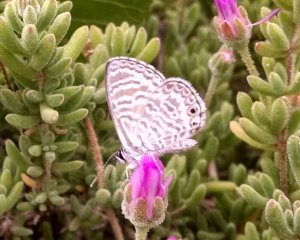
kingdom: Animalia
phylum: Arthropoda
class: Insecta
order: Lepidoptera
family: Lycaenidae
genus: Leptotes
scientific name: Leptotes marina
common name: Marine Blue
